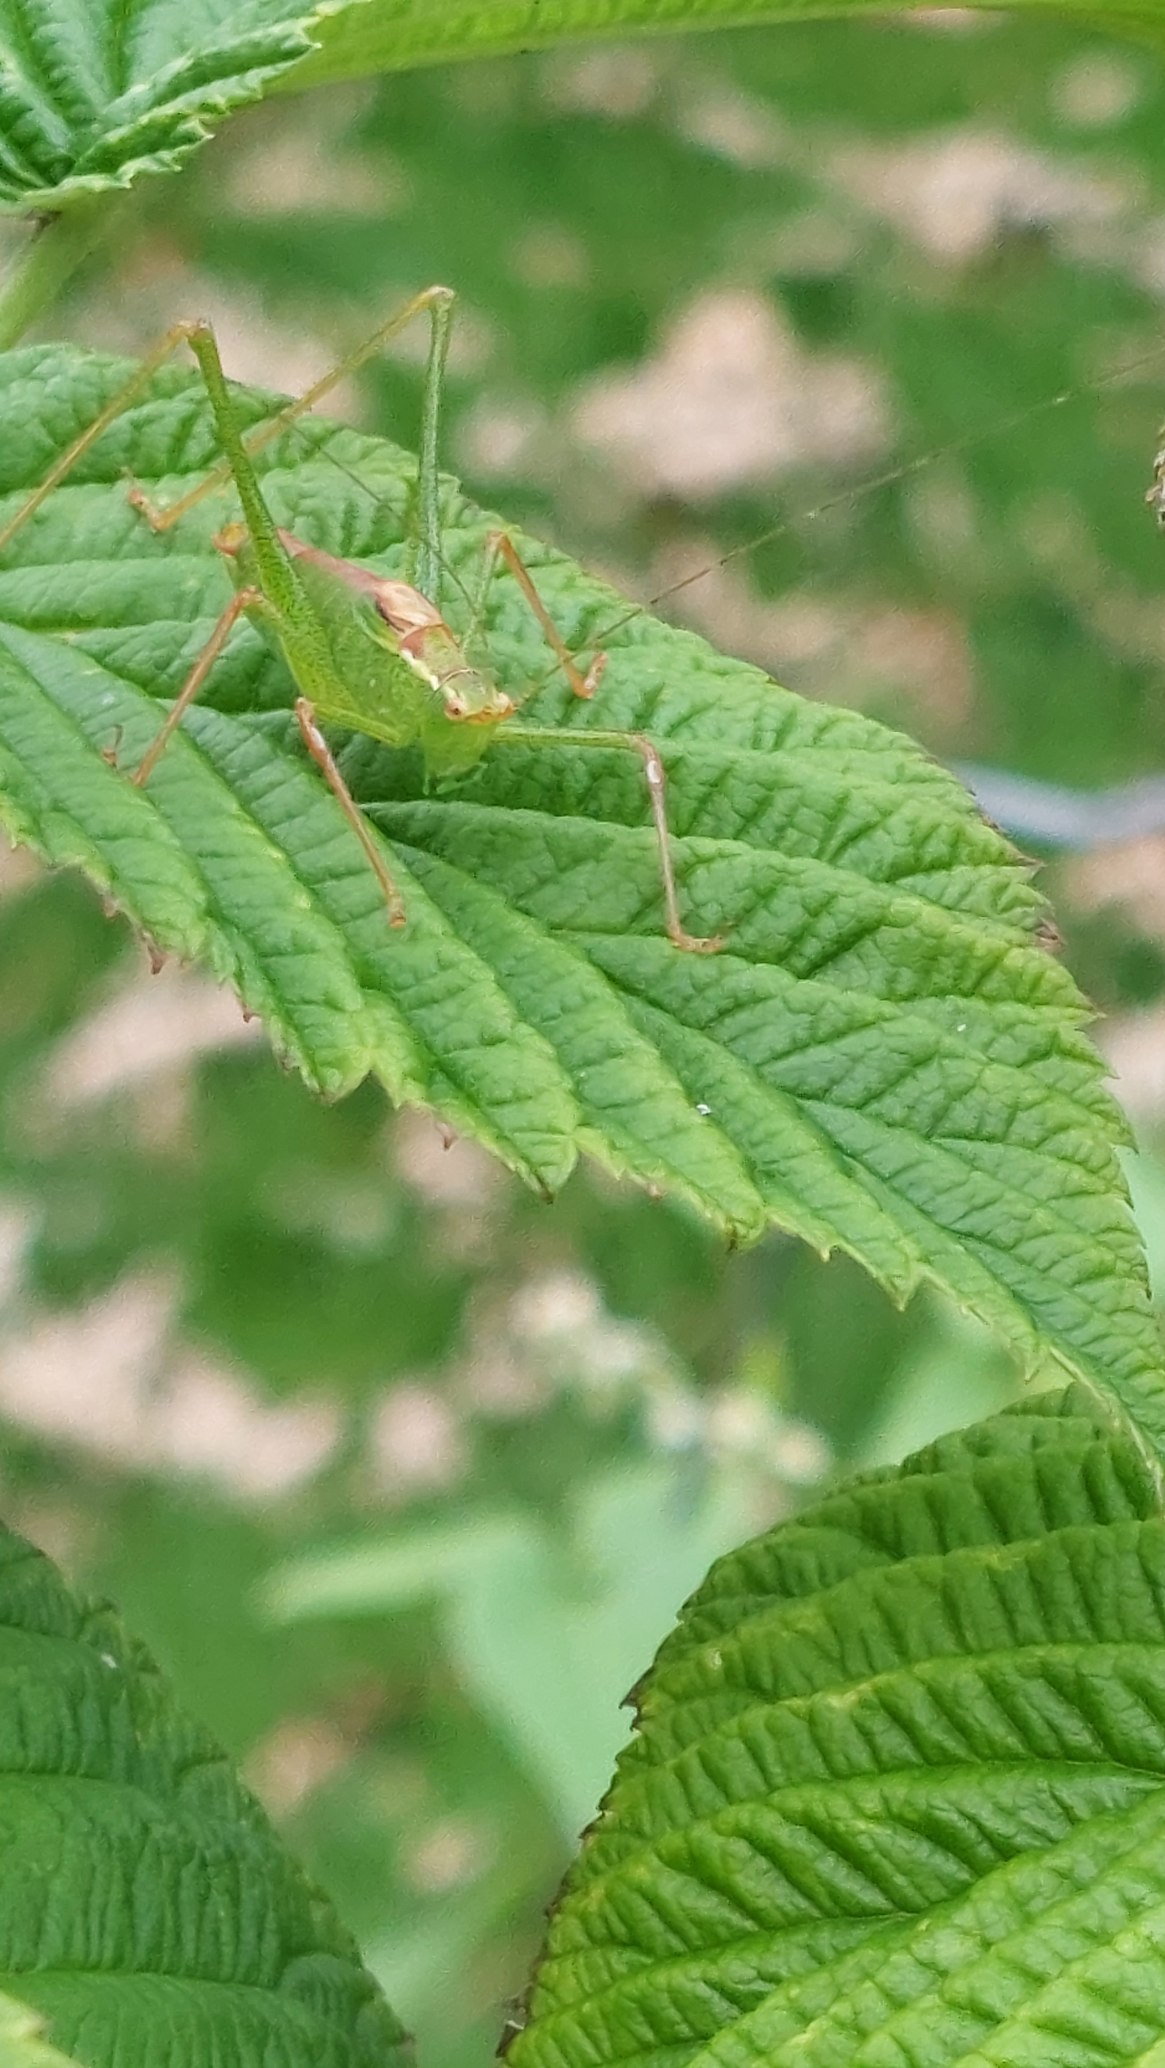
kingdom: Animalia
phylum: Arthropoda
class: Insecta
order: Orthoptera
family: Tettigoniidae
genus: Leptophyes
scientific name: Leptophyes punctatissima
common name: Krumknivgræshoppe
